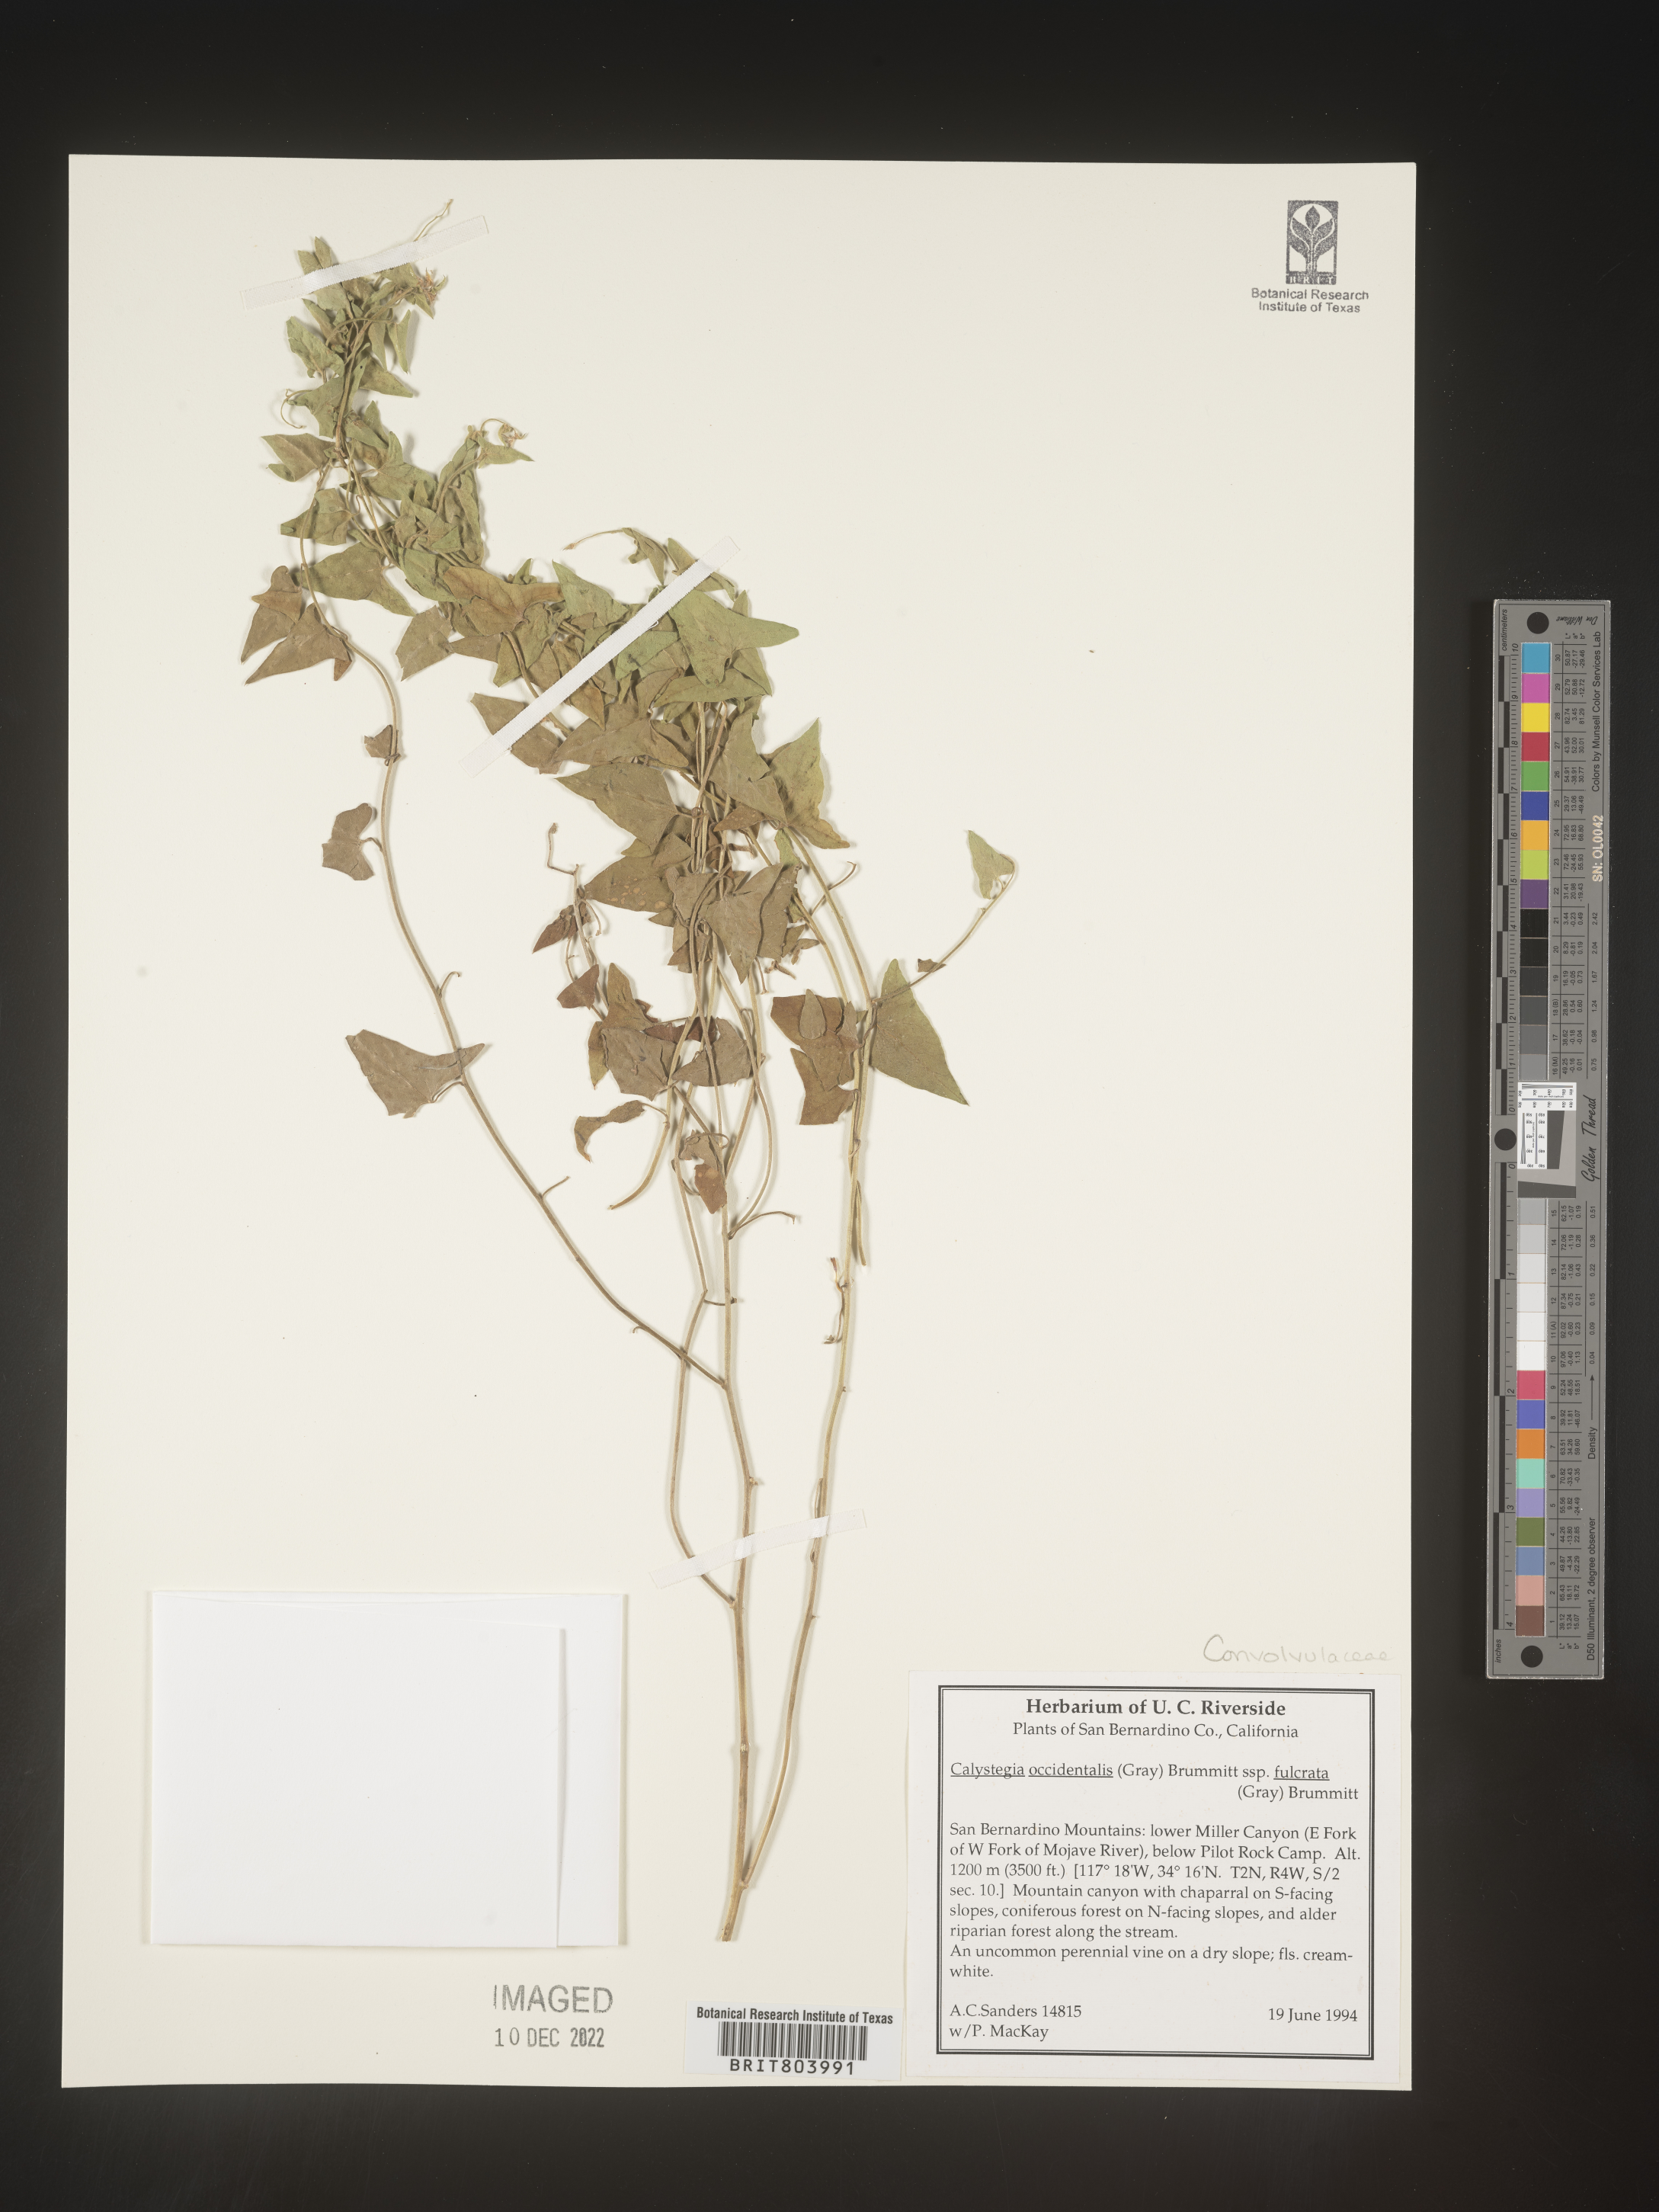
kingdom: Plantae
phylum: Tracheophyta
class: Magnoliopsida
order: Solanales
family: Convolvulaceae
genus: Calystegia
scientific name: Calystegia
